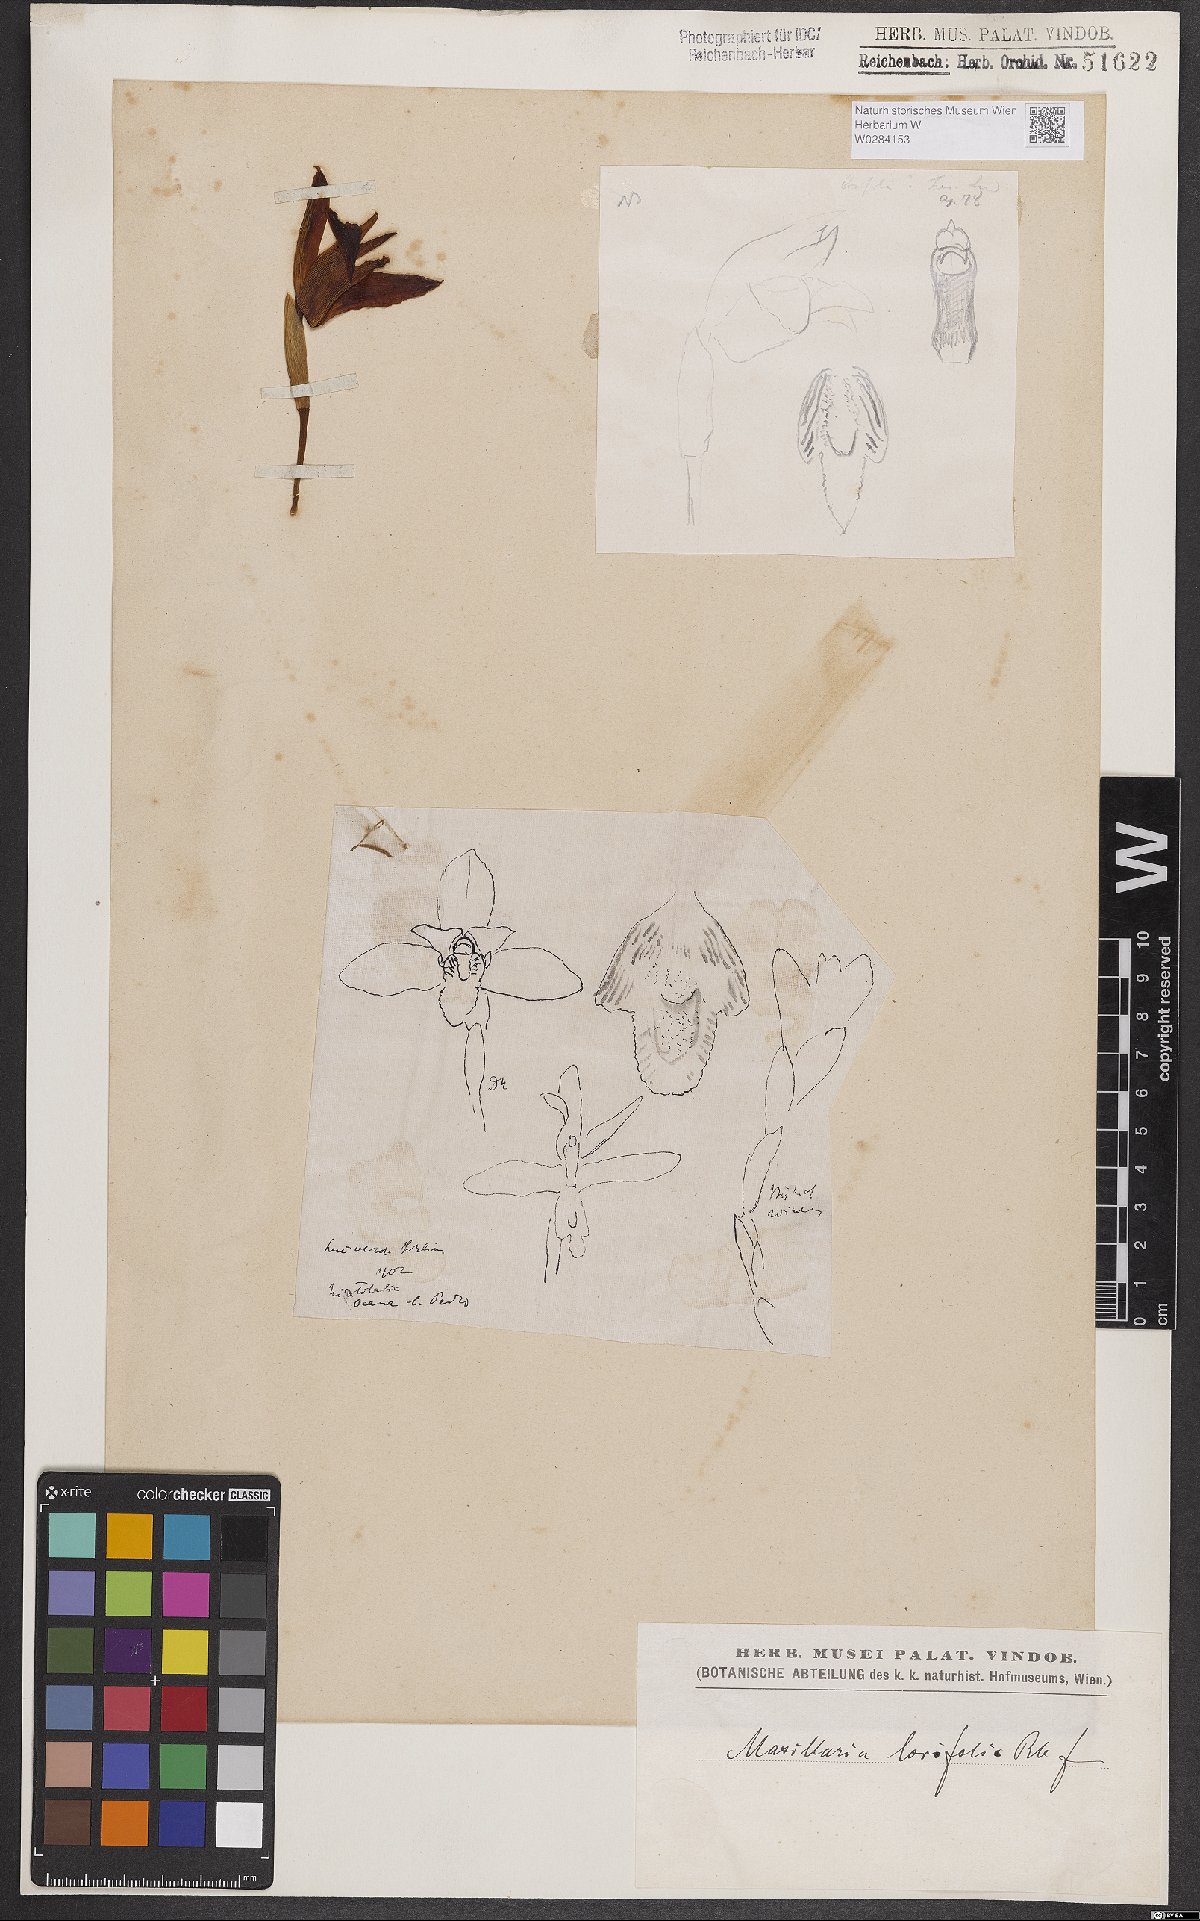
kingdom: Plantae
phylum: Tracheophyta
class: Liliopsida
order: Asparagales
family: Orchidaceae
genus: Maxillaria
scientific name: Maxillaria parkeri
